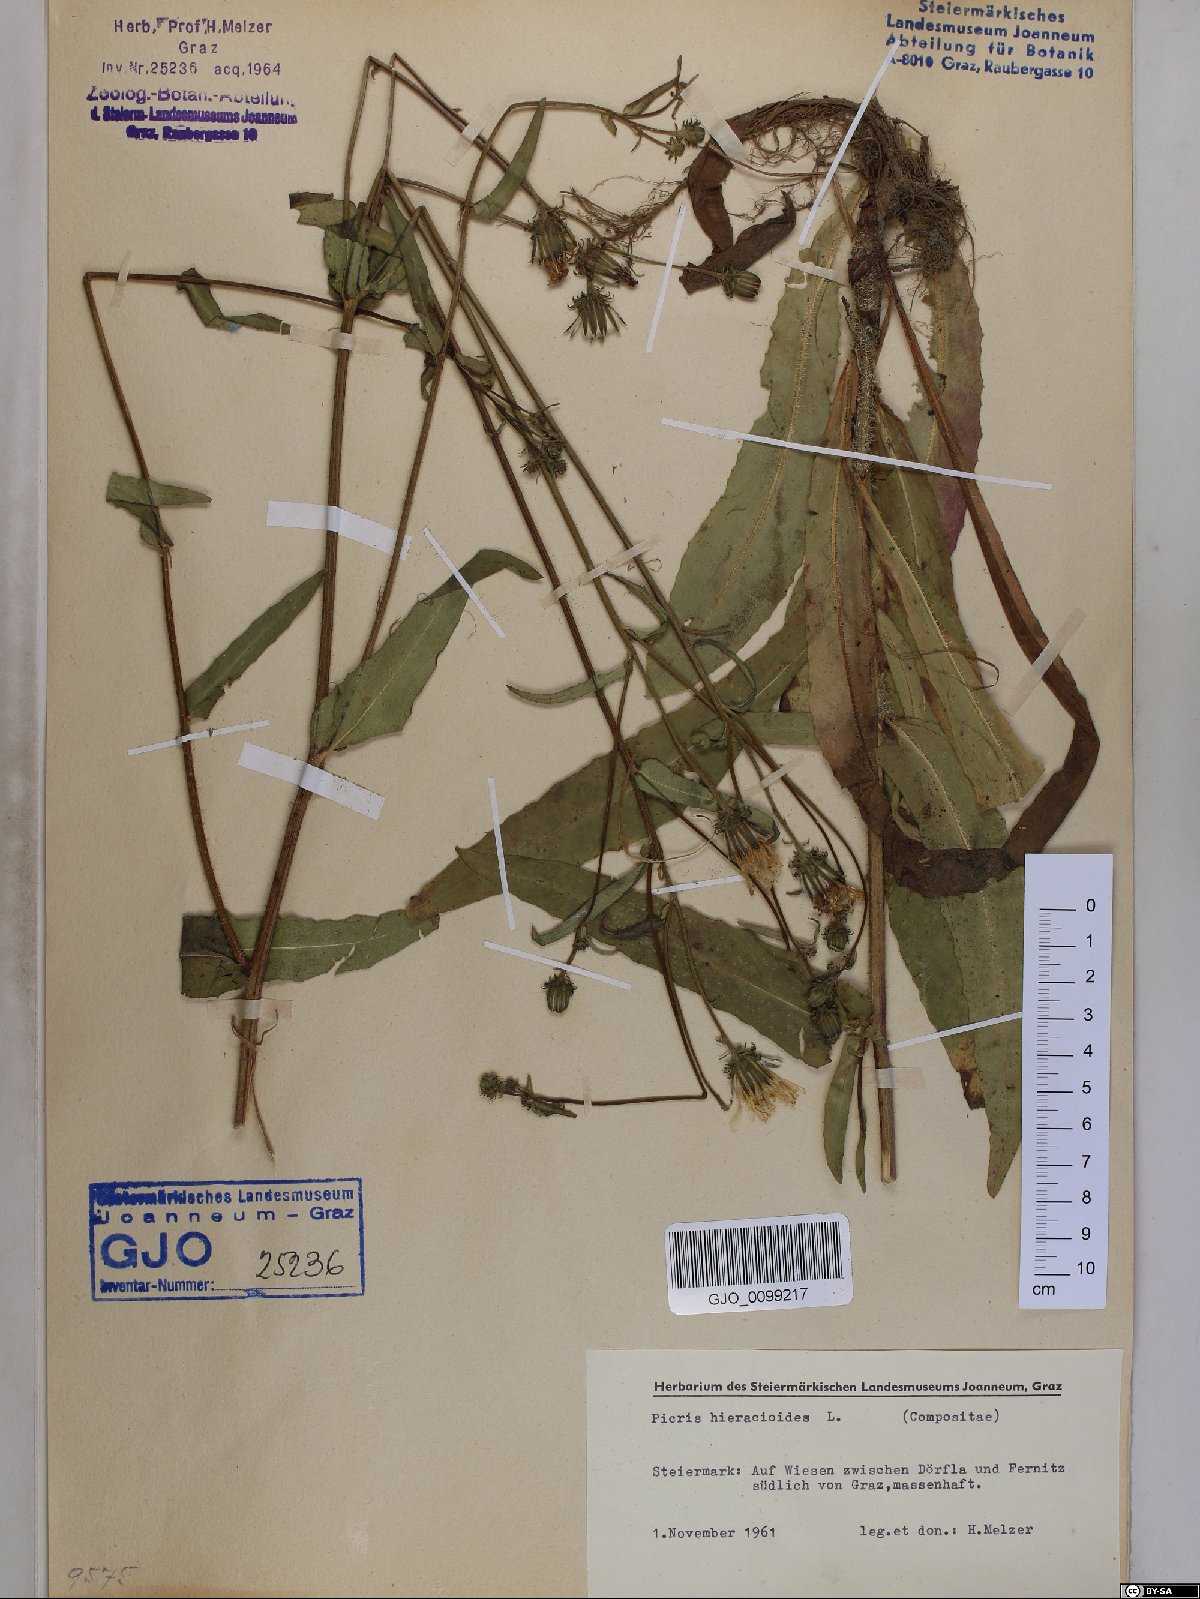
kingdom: Plantae
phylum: Tracheophyta
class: Magnoliopsida
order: Asterales
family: Asteraceae
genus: Picris
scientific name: Picris hieracioides
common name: Hawkweed oxtongue
